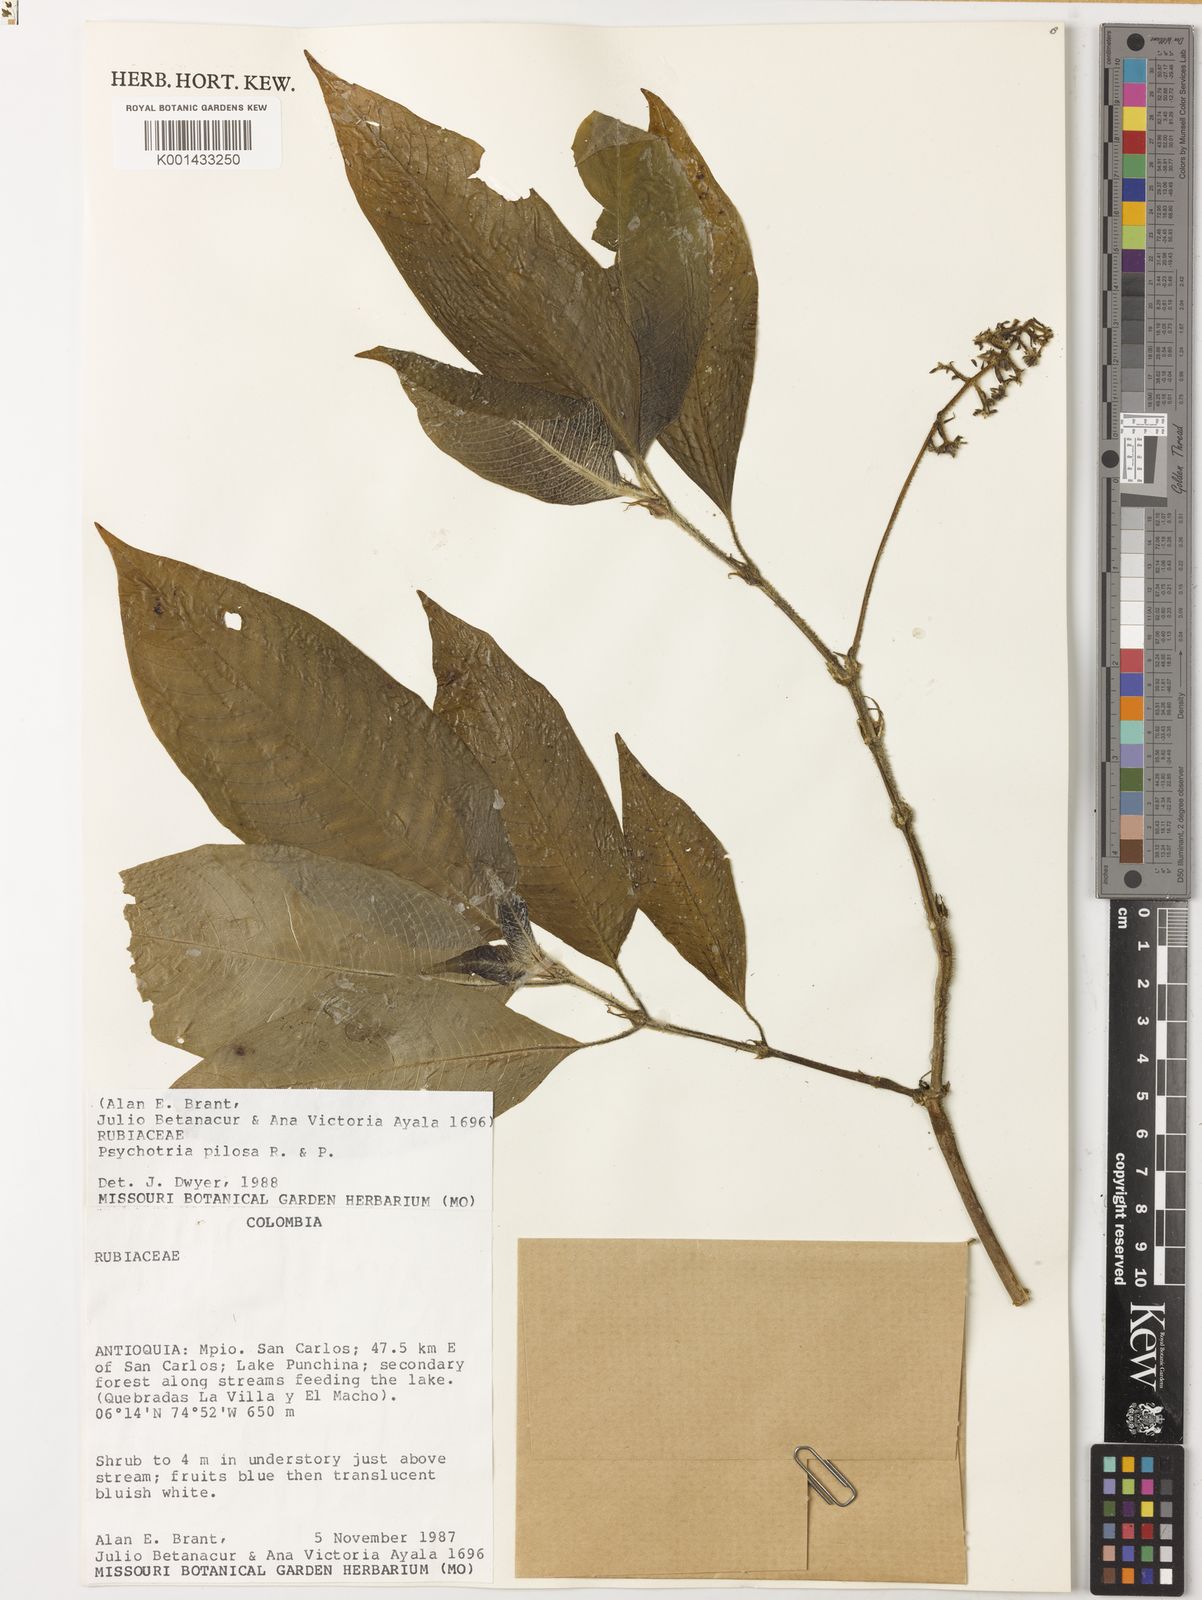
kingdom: Plantae
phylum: Tracheophyta
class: Magnoliopsida
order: Gentianales
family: Rubiaceae
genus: Palicourea
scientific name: Palicourea pilosa
